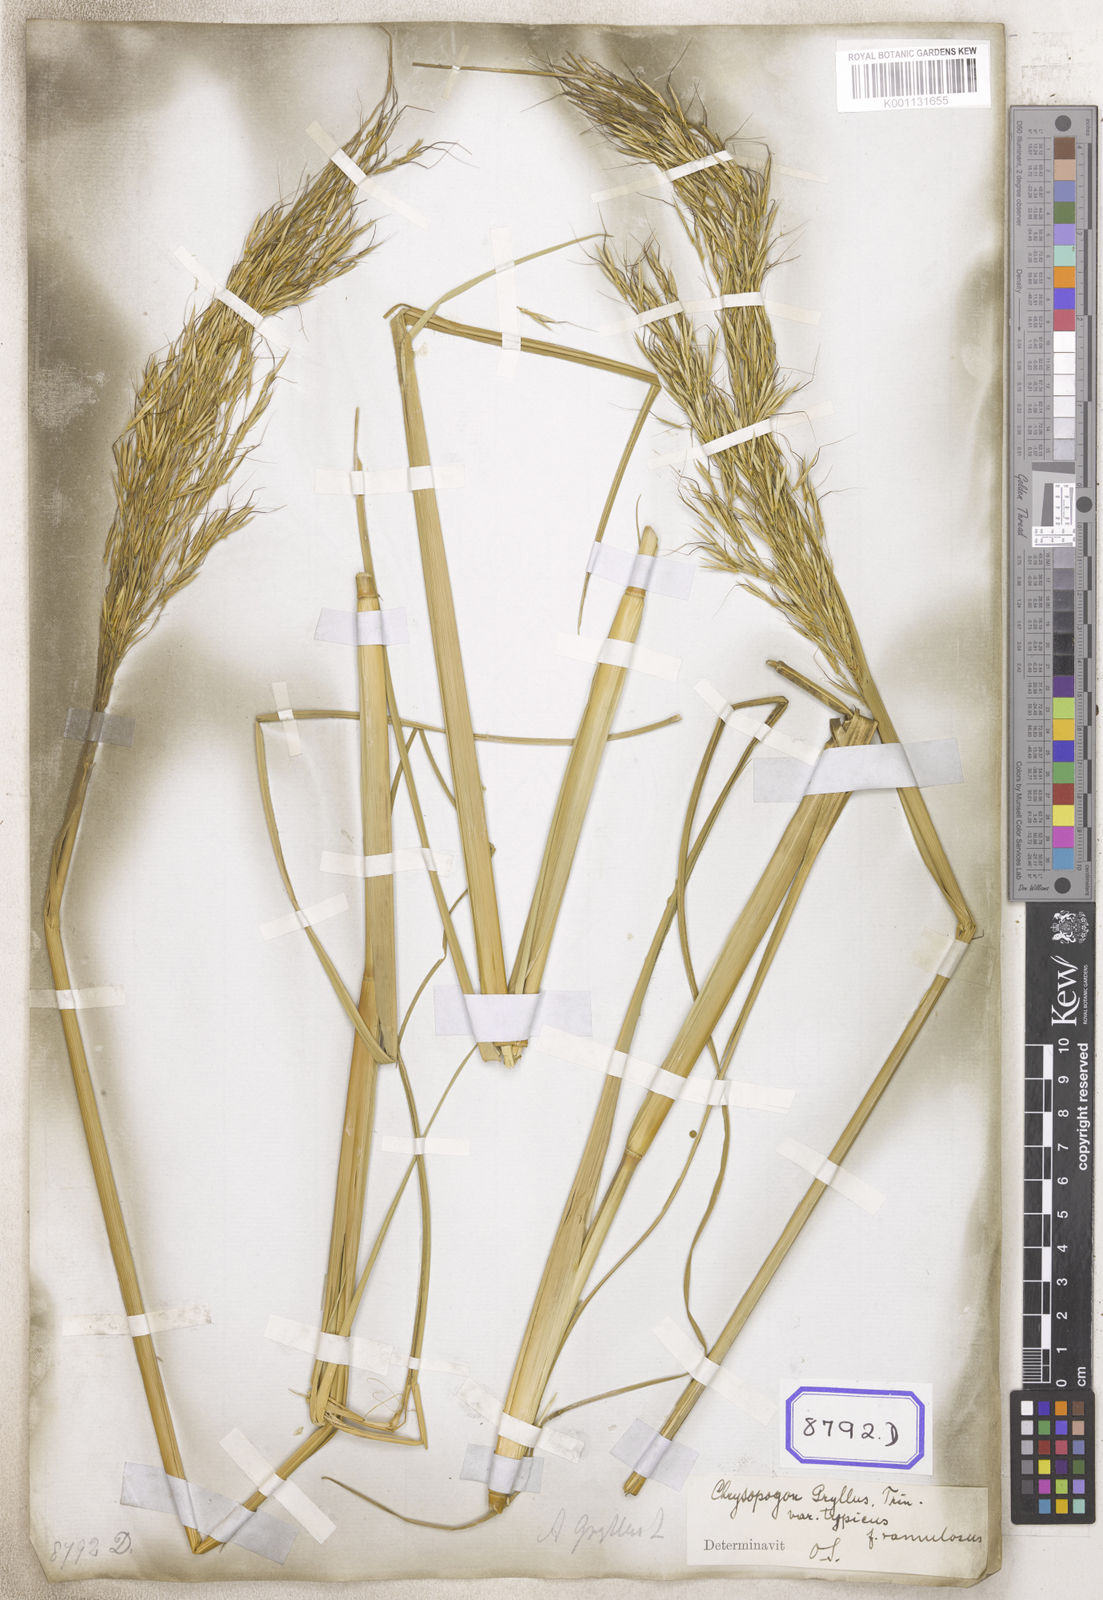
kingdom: Plantae
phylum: Tracheophyta
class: Liliopsida
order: Poales
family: Poaceae
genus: Chrysopogon
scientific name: Chrysopogon
